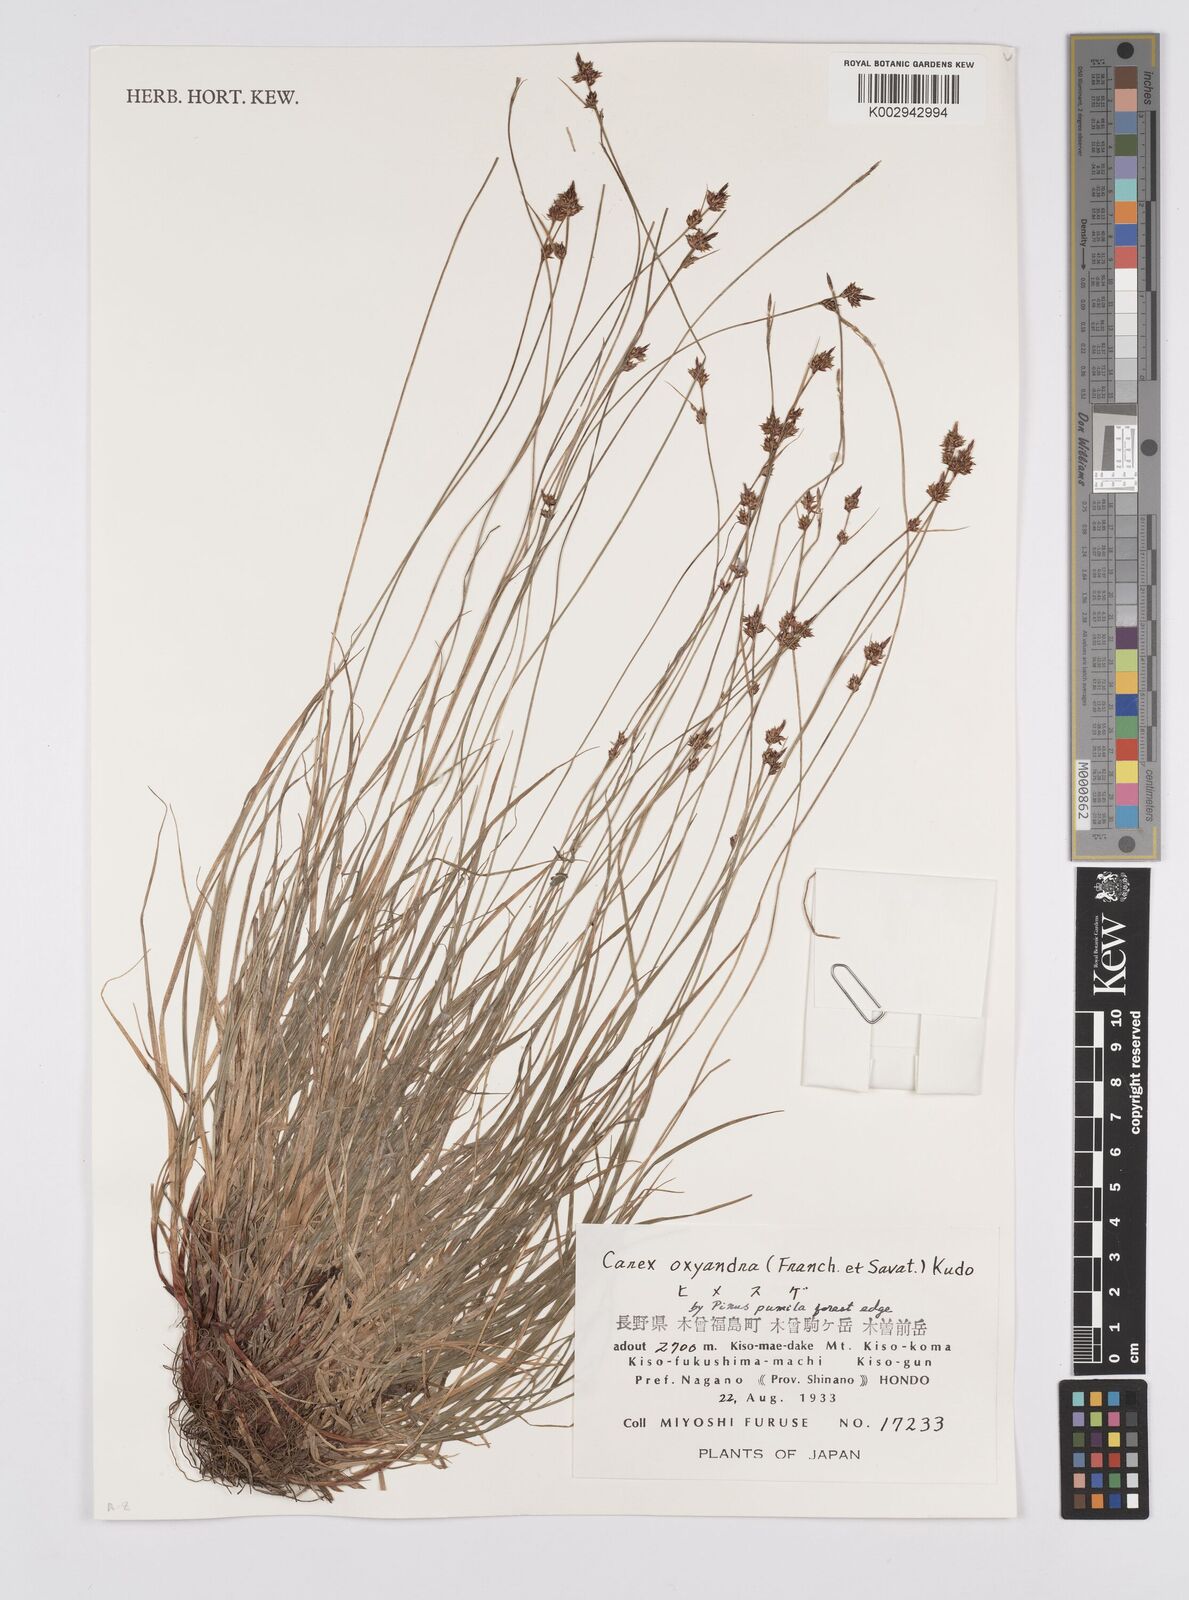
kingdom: Plantae
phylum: Tracheophyta
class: Liliopsida
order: Poales
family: Cyperaceae
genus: Carex
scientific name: Carex oxyandra
